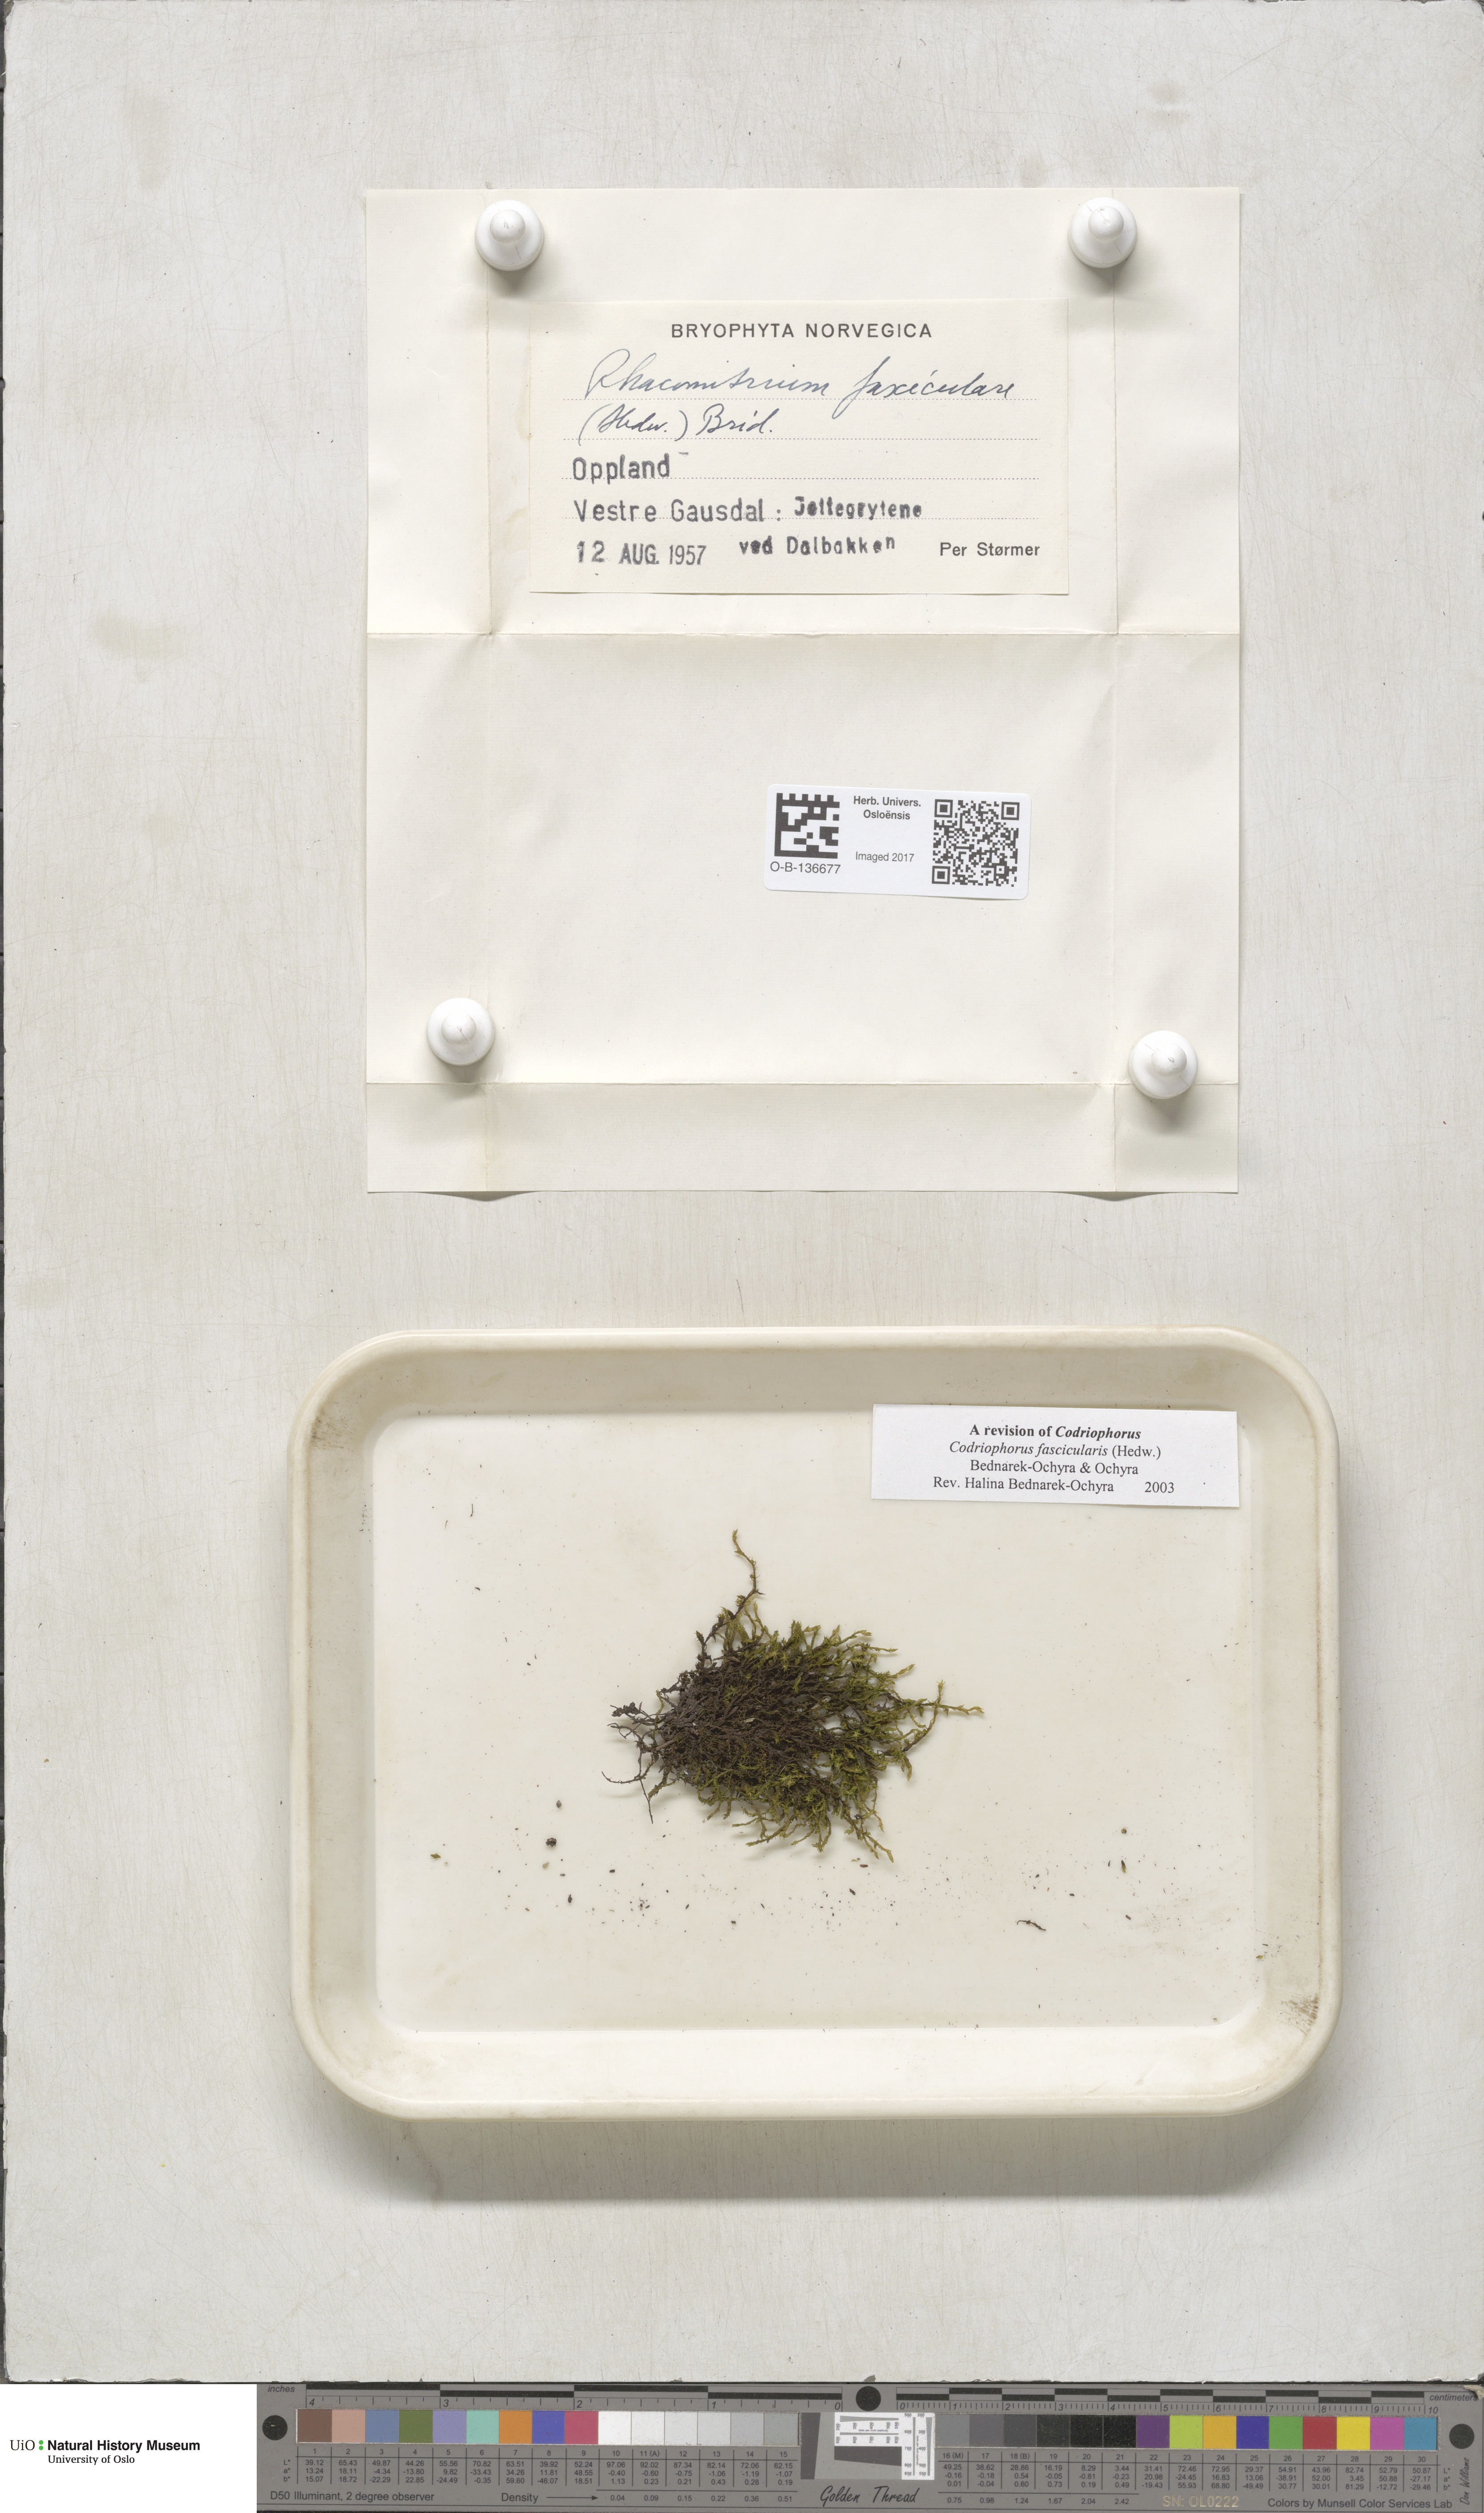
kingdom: Plantae
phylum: Bryophyta
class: Bryopsida
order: Grimmiales
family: Grimmiaceae
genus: Dilutineuron
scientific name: Dilutineuron fasciculare
